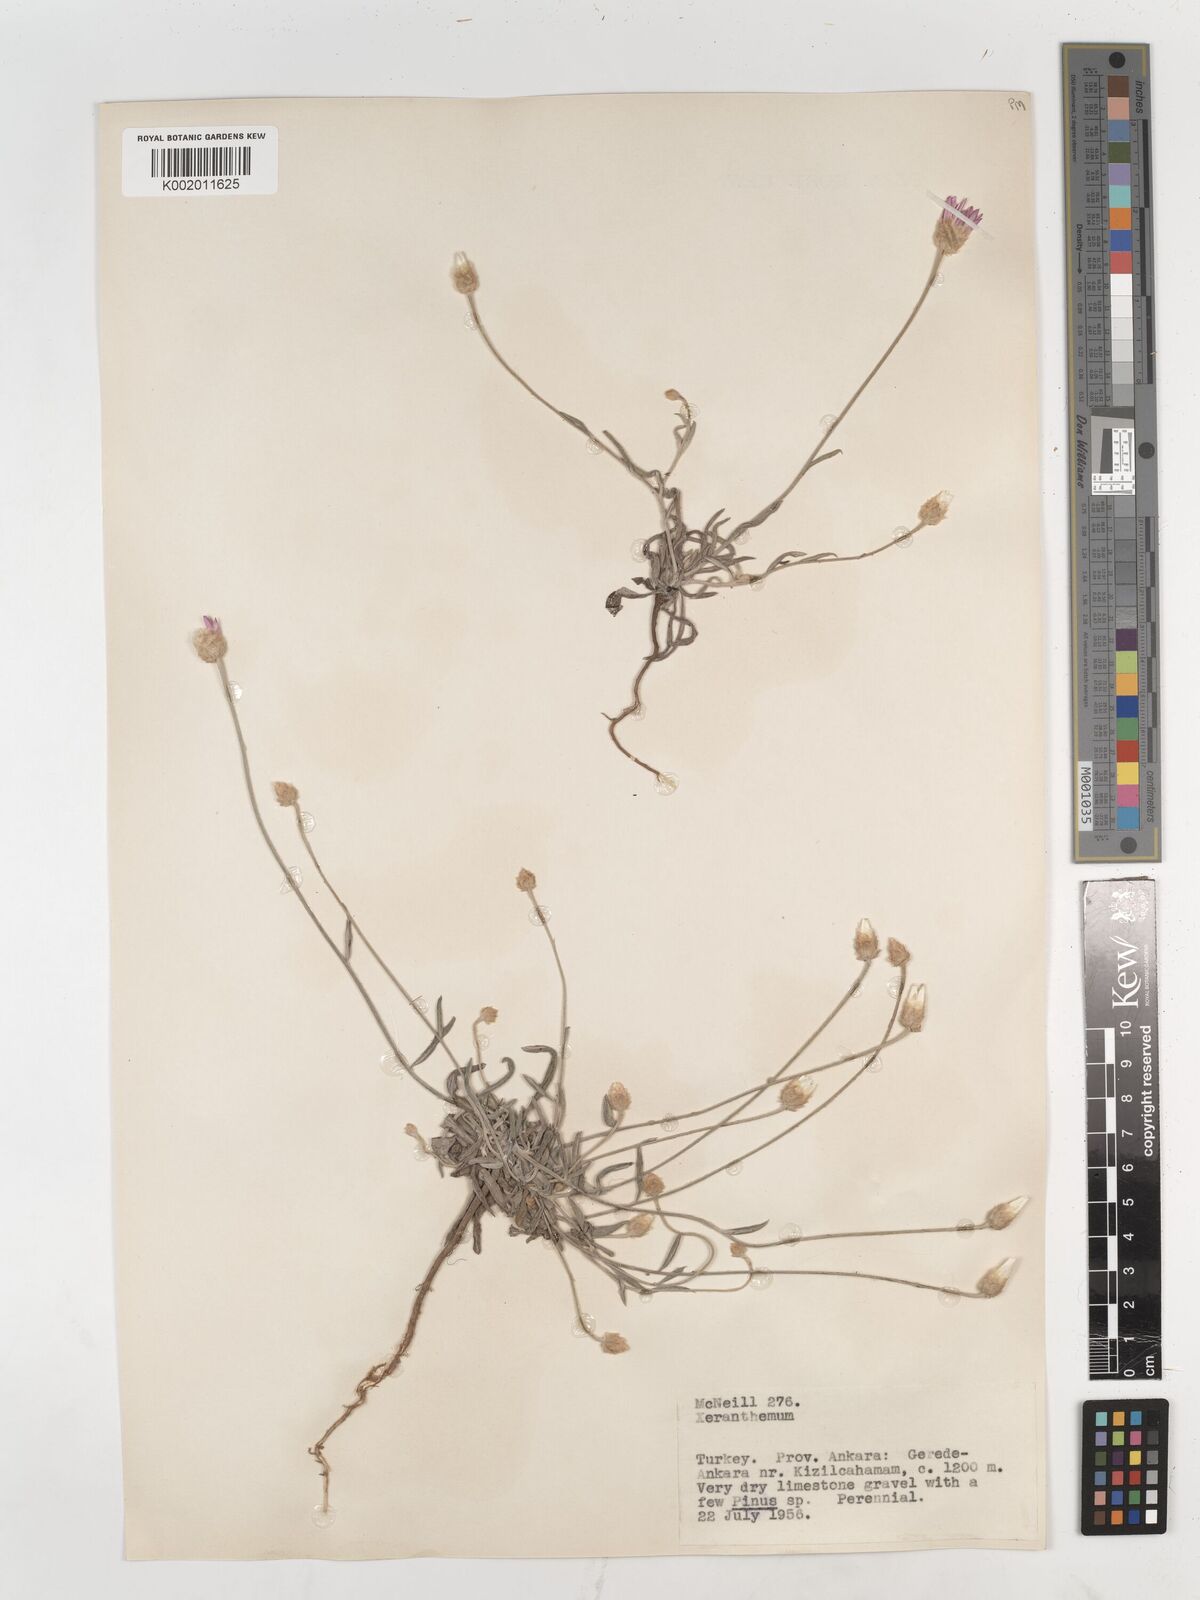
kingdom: Plantae
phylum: Tracheophyta
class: Magnoliopsida
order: Asterales
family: Asteraceae
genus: Xeranthemum
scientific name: Xeranthemum annuum
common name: Immortelle
